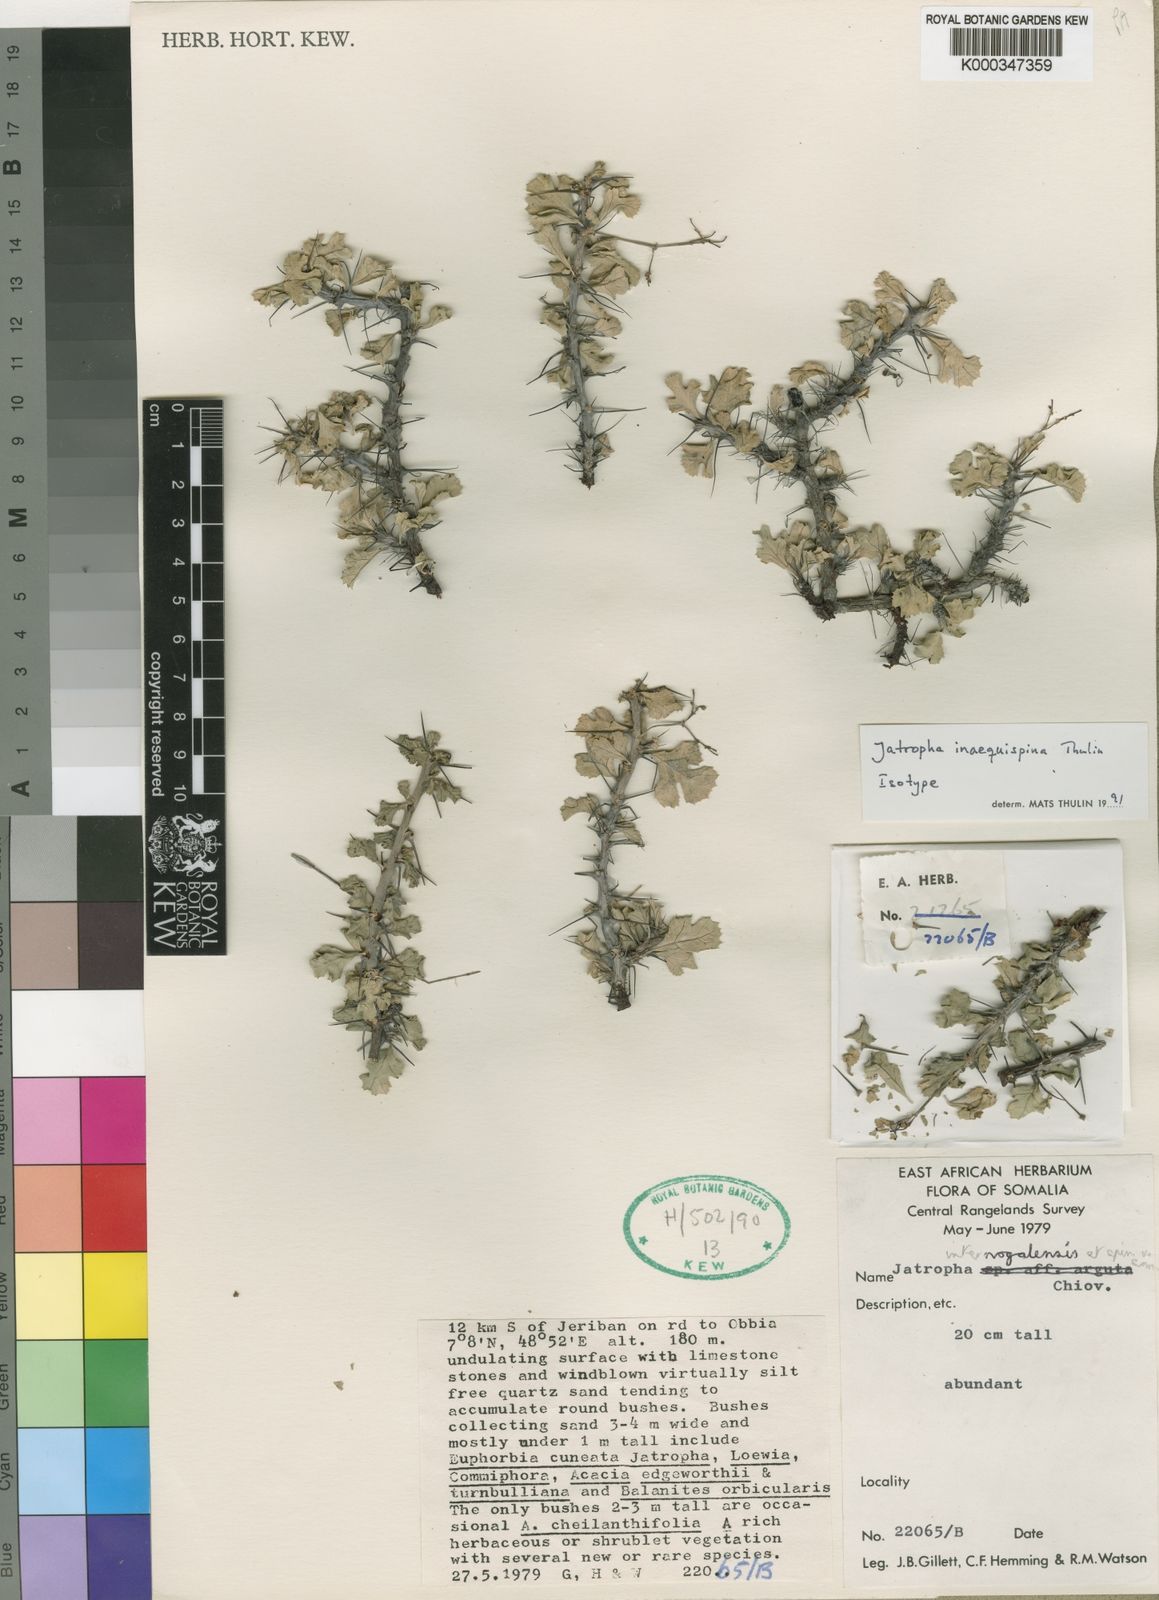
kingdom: Plantae
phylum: Tracheophyta
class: Magnoliopsida
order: Malpighiales
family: Euphorbiaceae
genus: Jatropha
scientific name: Jatropha inaequispina
